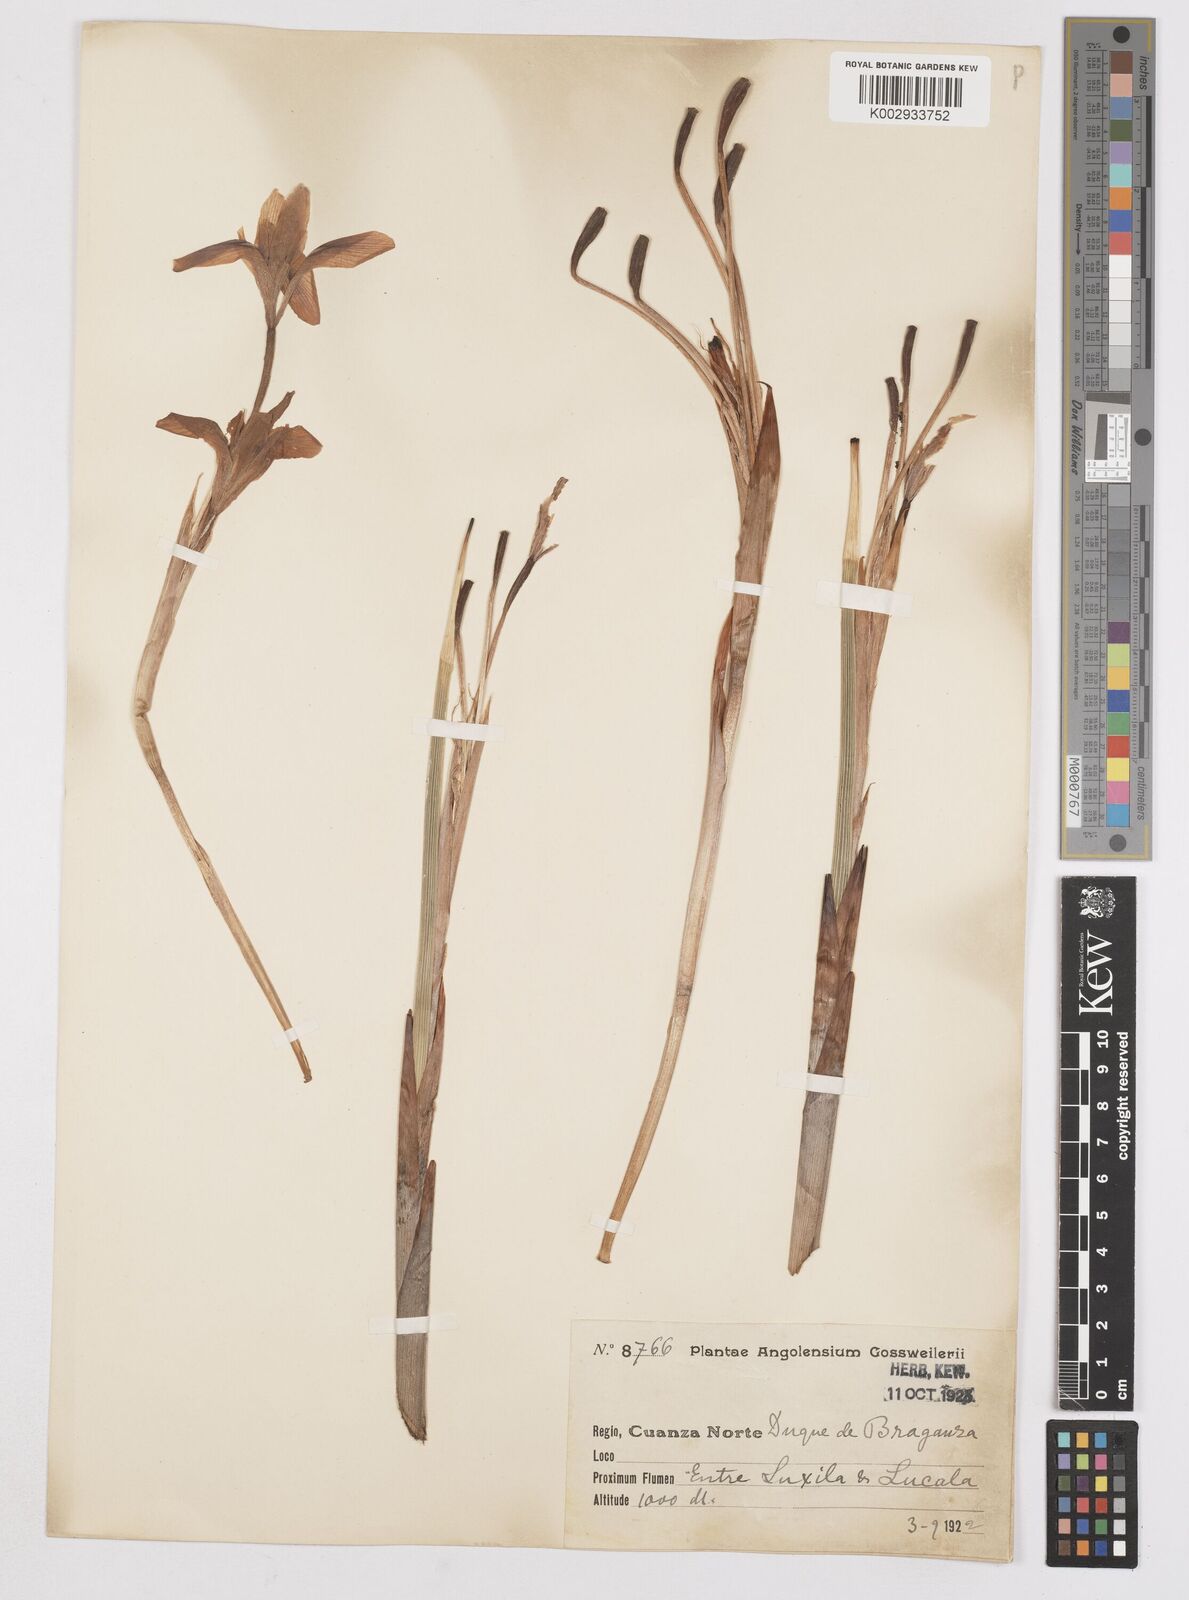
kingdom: Plantae
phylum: Tracheophyta
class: Liliopsida
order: Asparagales
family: Iridaceae
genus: Moraea
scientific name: Moraea schimperi
